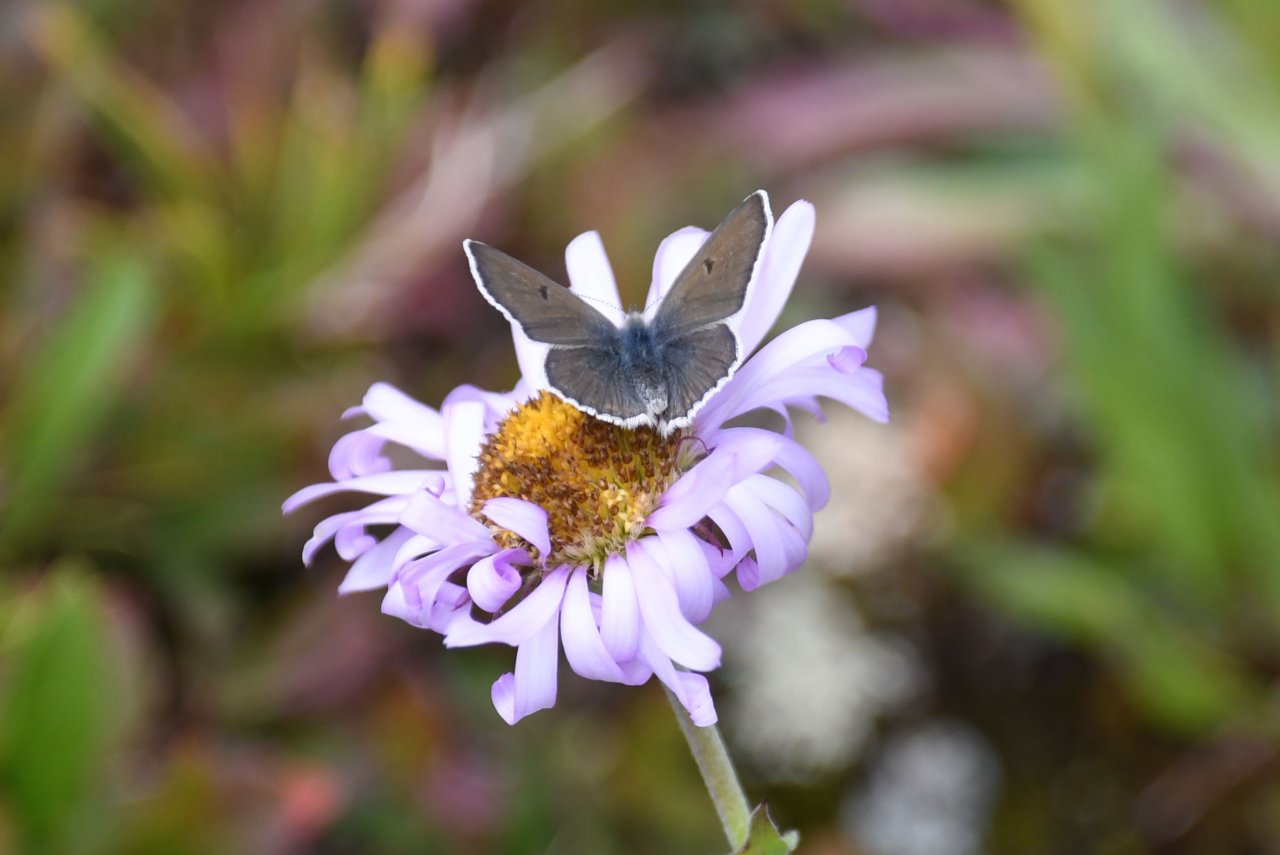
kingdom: Animalia
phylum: Arthropoda
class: Insecta
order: Lepidoptera
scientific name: Lepidoptera
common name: Butterflies
